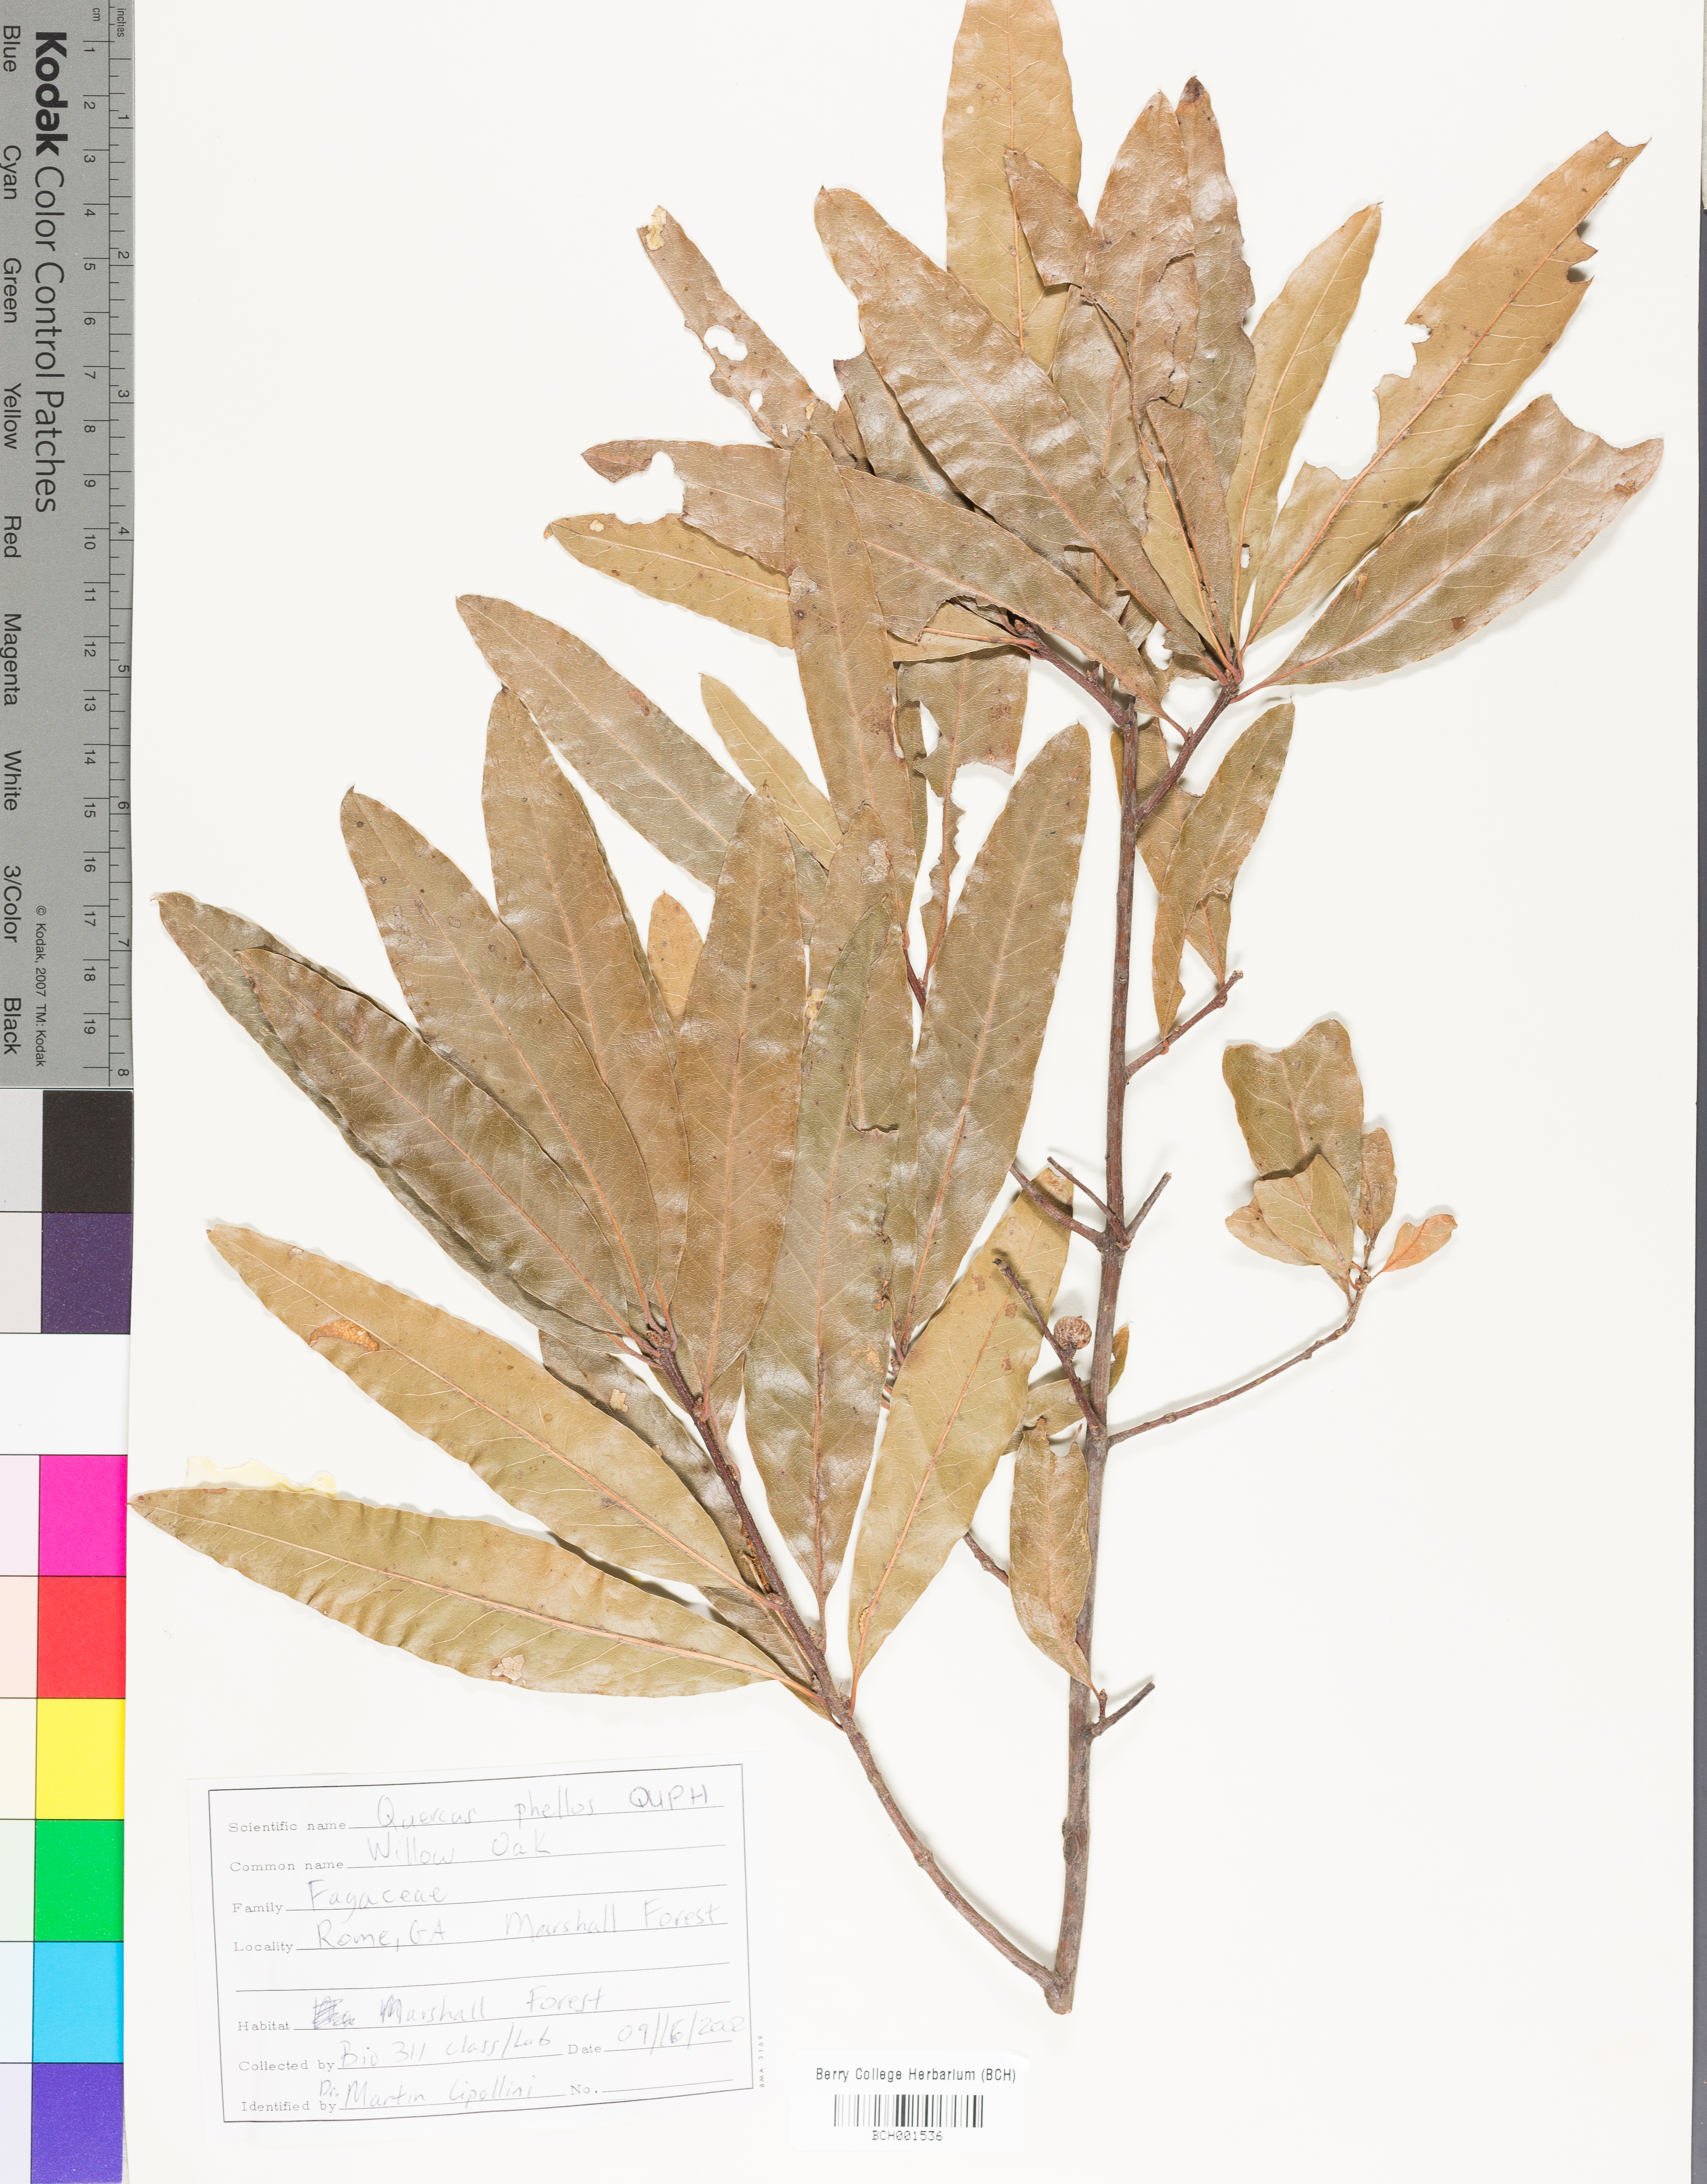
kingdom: Plantae
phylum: Tracheophyta
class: Magnoliopsida
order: Fagales
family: Fagaceae
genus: Quercus
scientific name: Quercus phellos
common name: Willow oak
